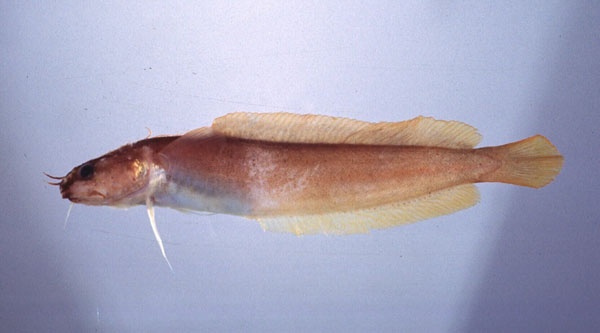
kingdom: Animalia
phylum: Chordata
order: Gadiformes
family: Lotidae
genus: Gaidropsarus
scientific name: Gaidropsarus capensis
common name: Cape rockling
